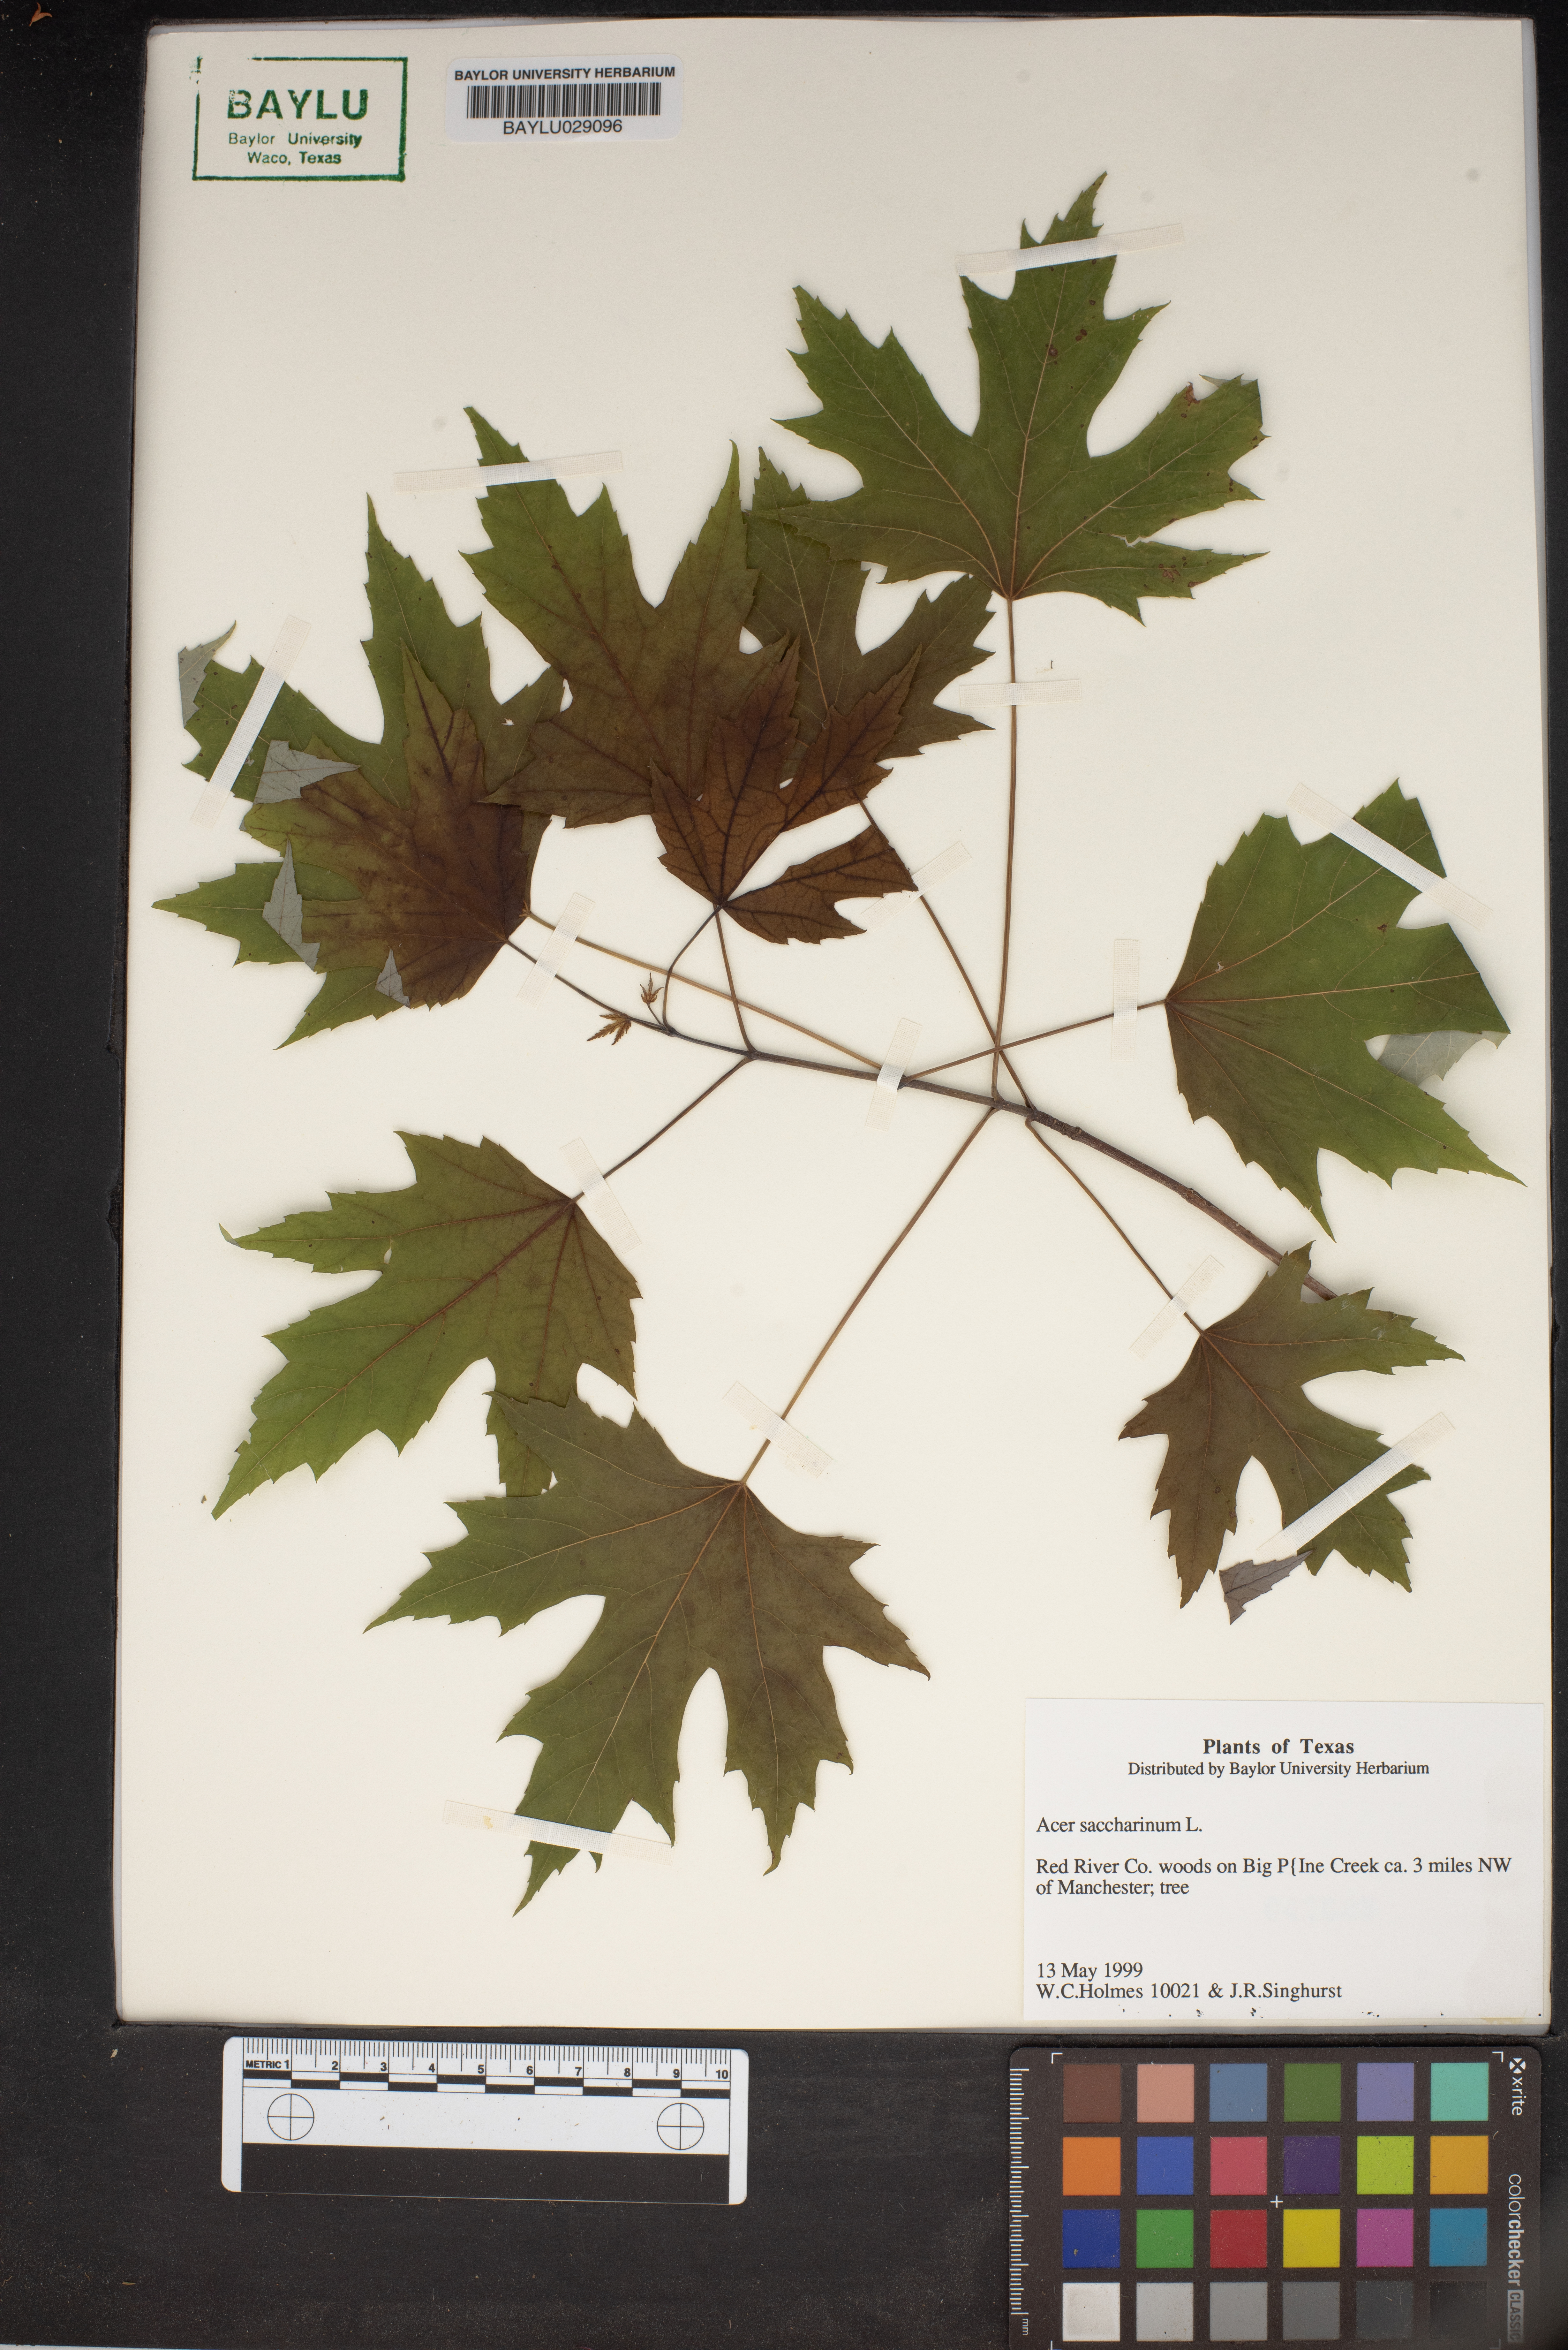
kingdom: Plantae
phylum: Tracheophyta
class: Magnoliopsida
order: Sapindales
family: Sapindaceae
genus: Acer
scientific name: Acer saccharinum
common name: Silver maple
